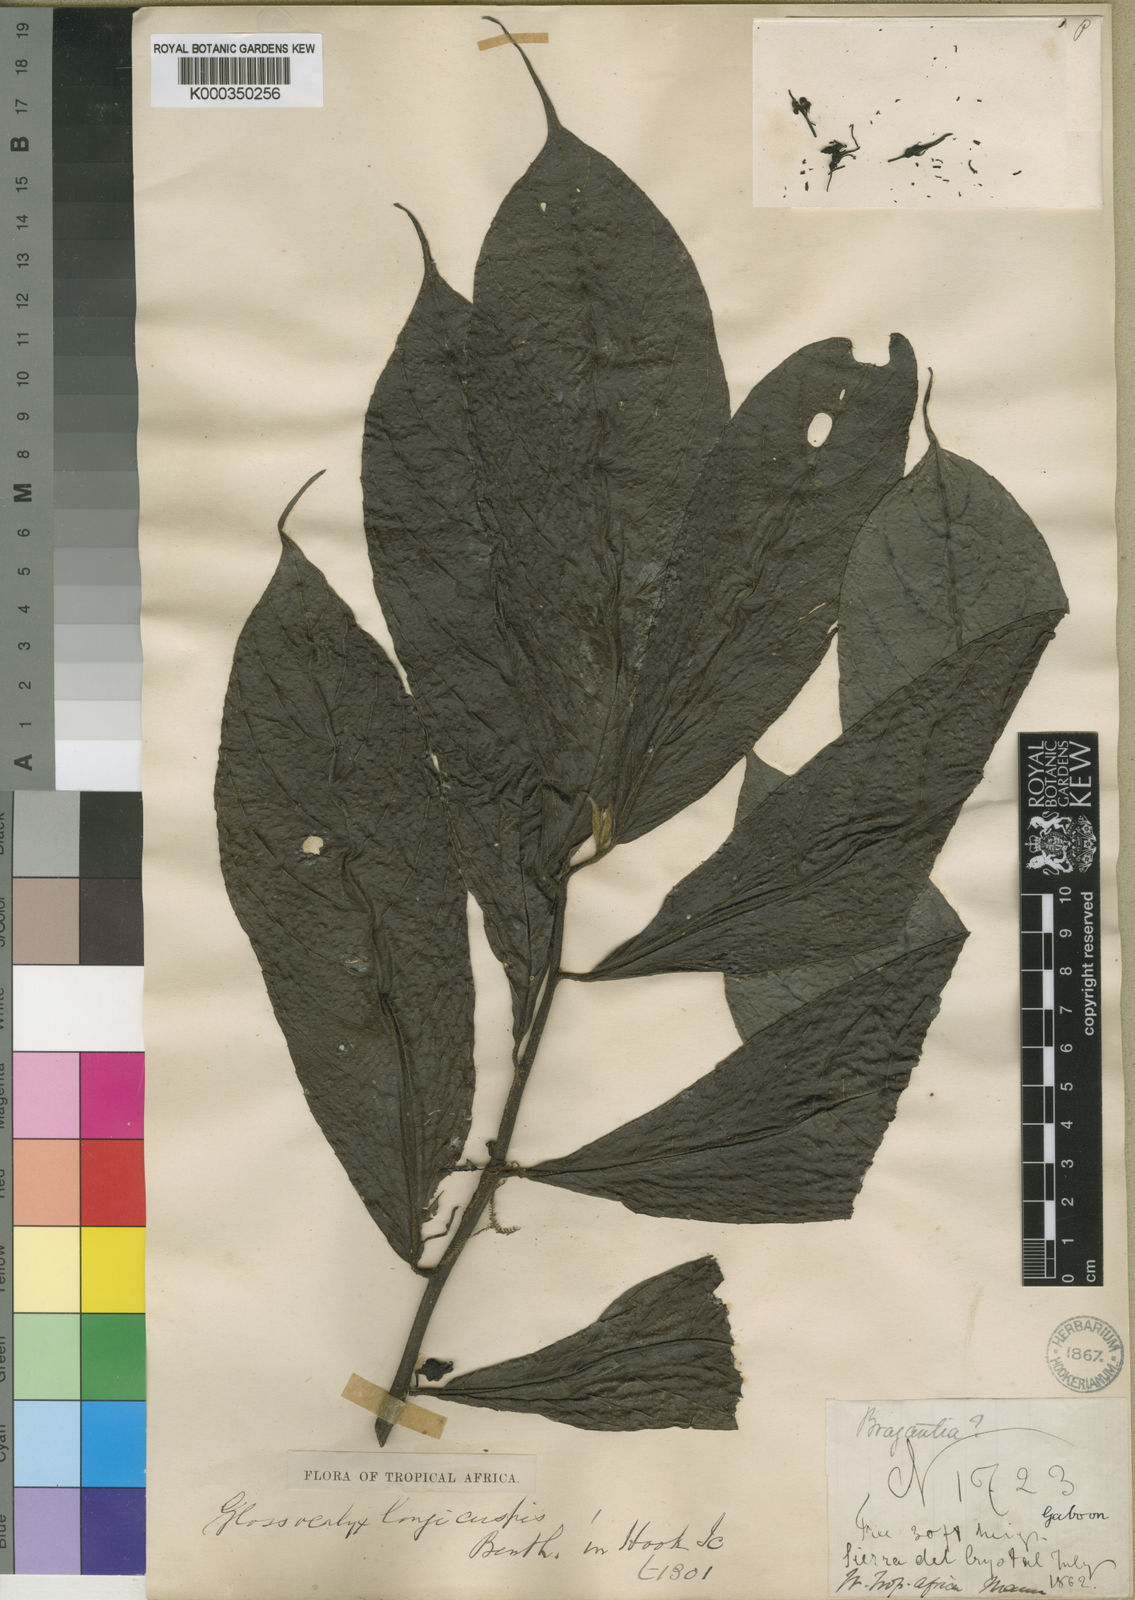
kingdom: Plantae
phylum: Tracheophyta
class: Magnoliopsida
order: Laurales
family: Siparunaceae
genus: Glossocalyx
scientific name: Glossocalyx longicuspis
